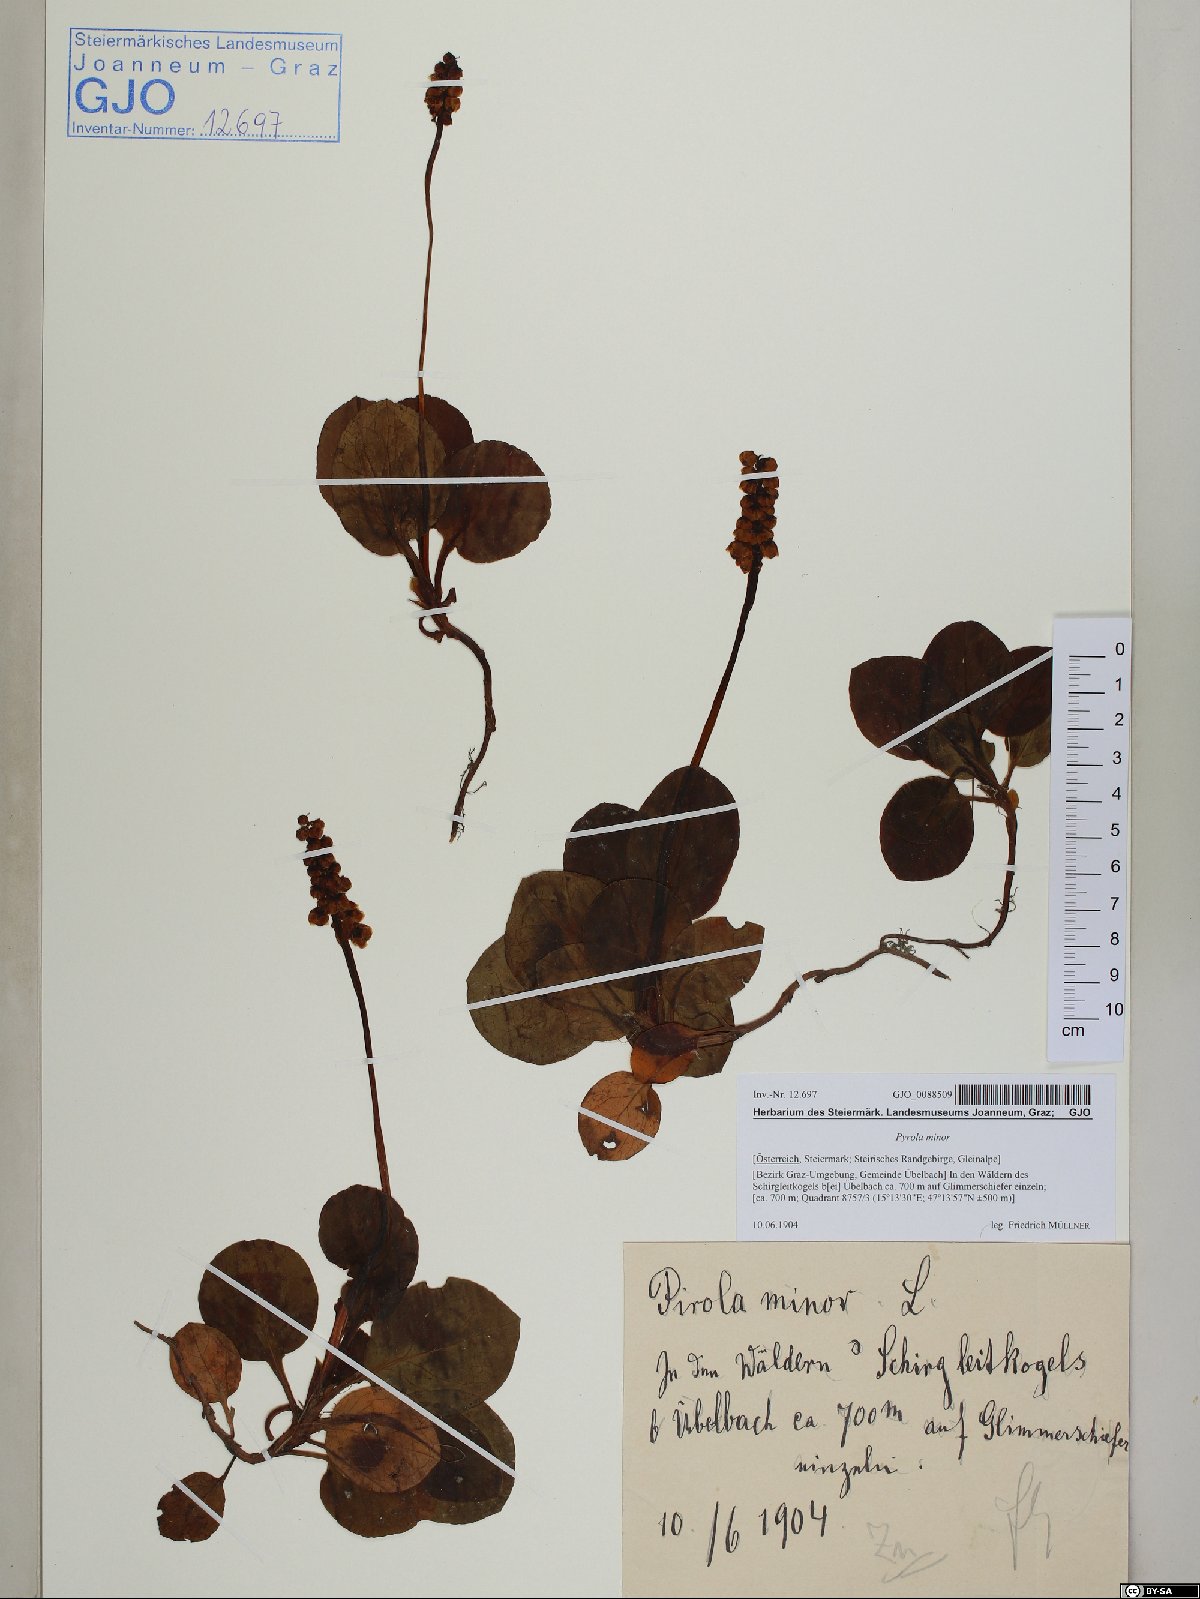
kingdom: Plantae
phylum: Tracheophyta
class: Magnoliopsida
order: Ericales
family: Ericaceae
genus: Pyrola
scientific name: Pyrola minor
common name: Common wintergreen
